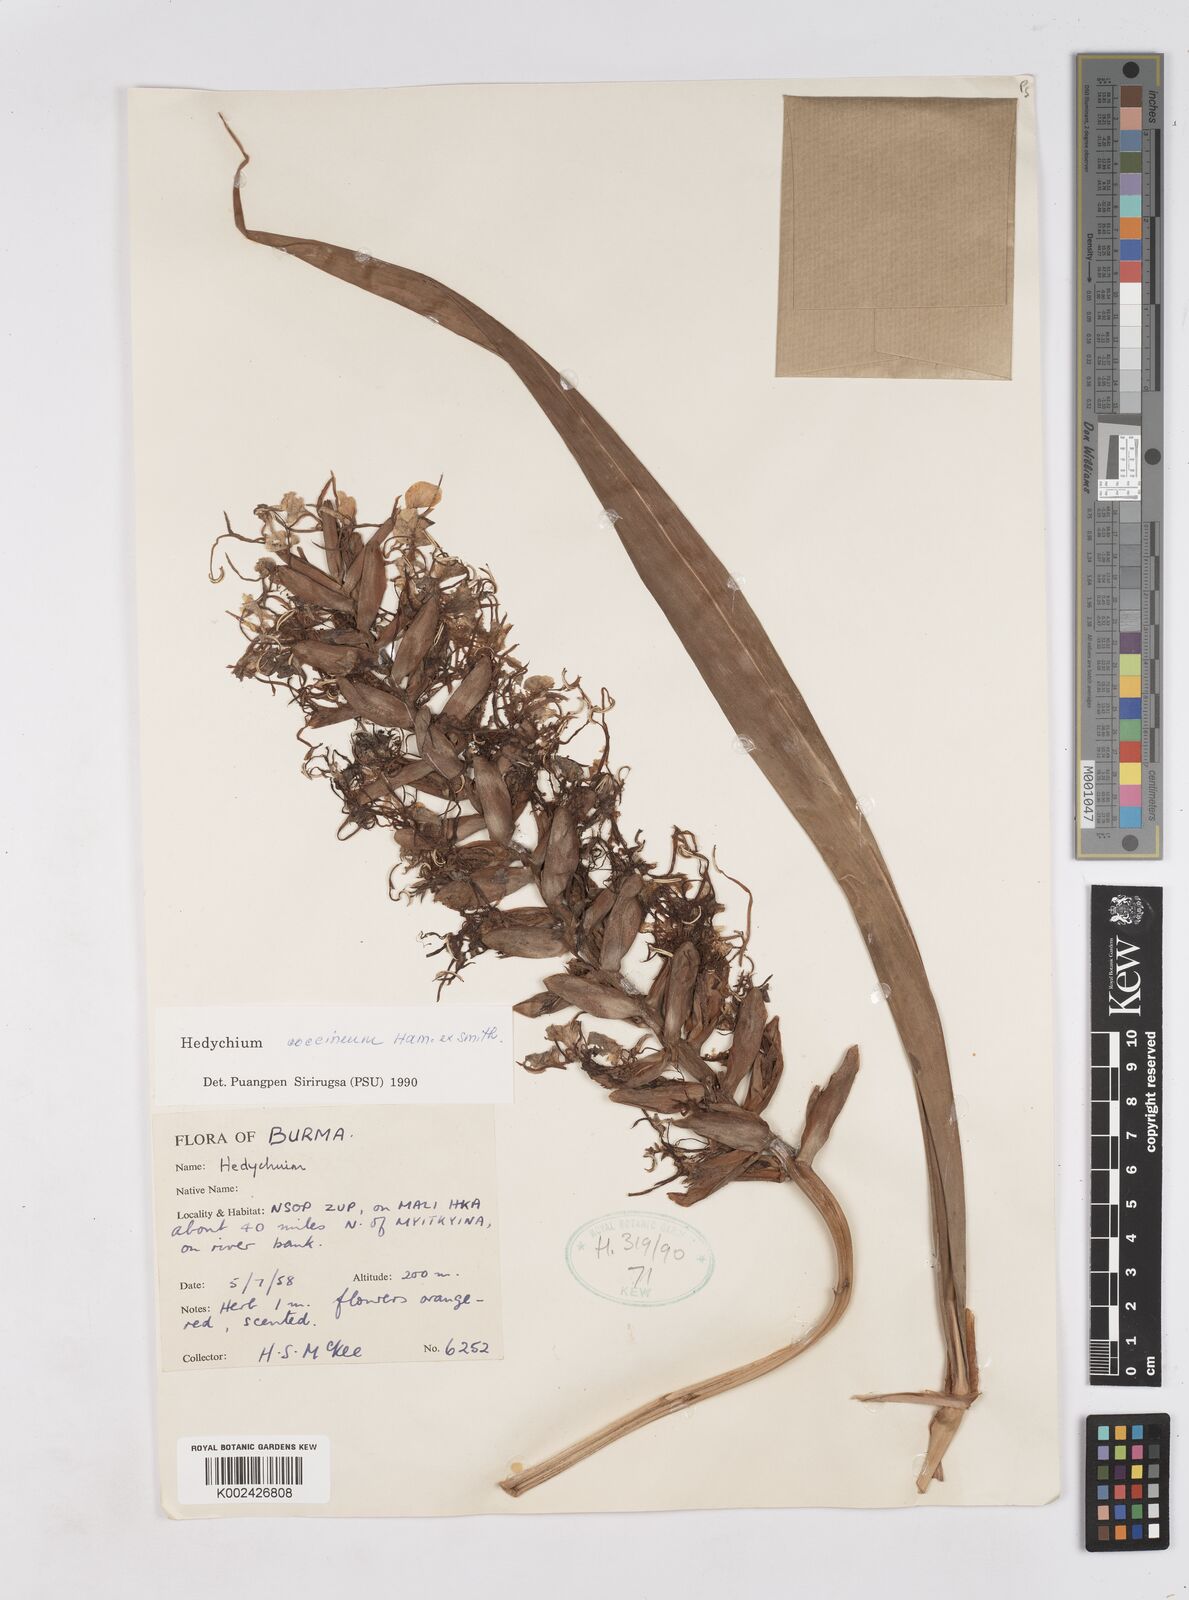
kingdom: Plantae
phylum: Tracheophyta
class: Liliopsida
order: Zingiberales
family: Zingiberaceae
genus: Hedychium
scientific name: Hedychium coccineum
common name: Red ginger-lily
